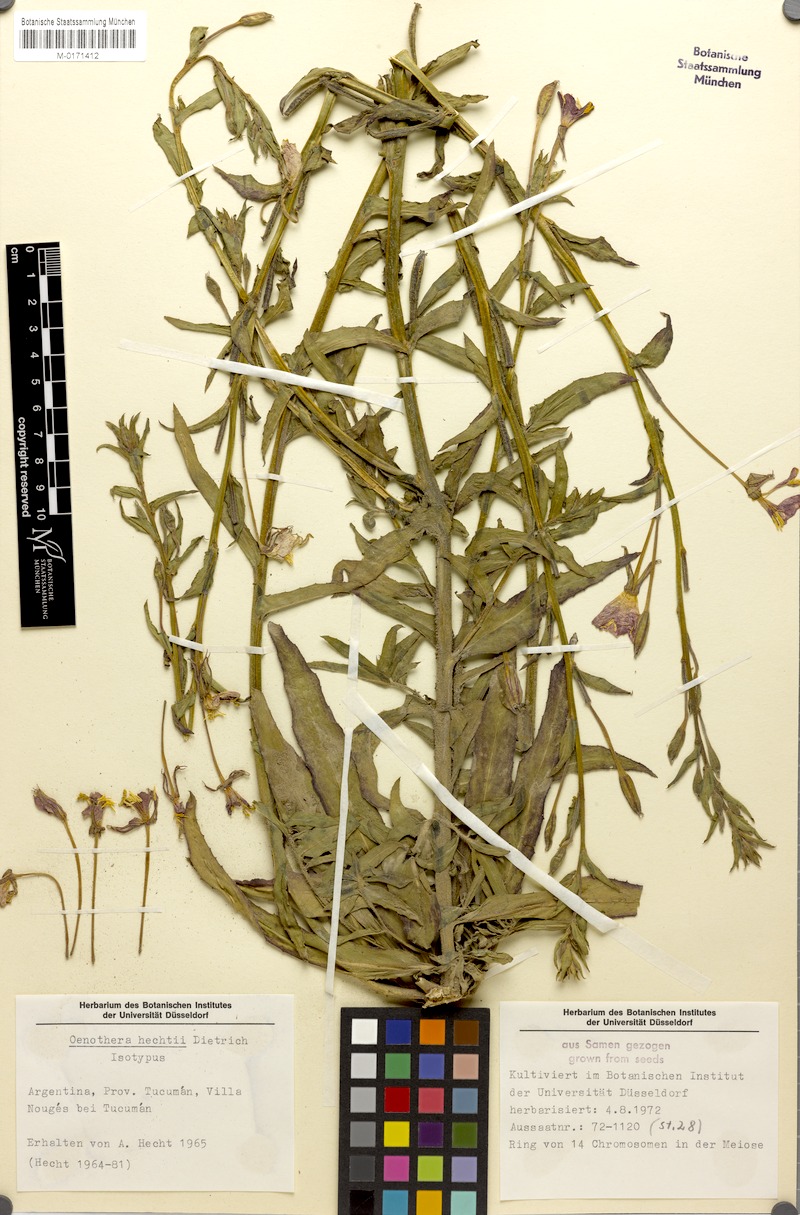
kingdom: Plantae
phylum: Tracheophyta
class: Magnoliopsida
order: Myrtales
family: Onagraceae
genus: Oenothera
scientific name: Oenothera siambonensis
